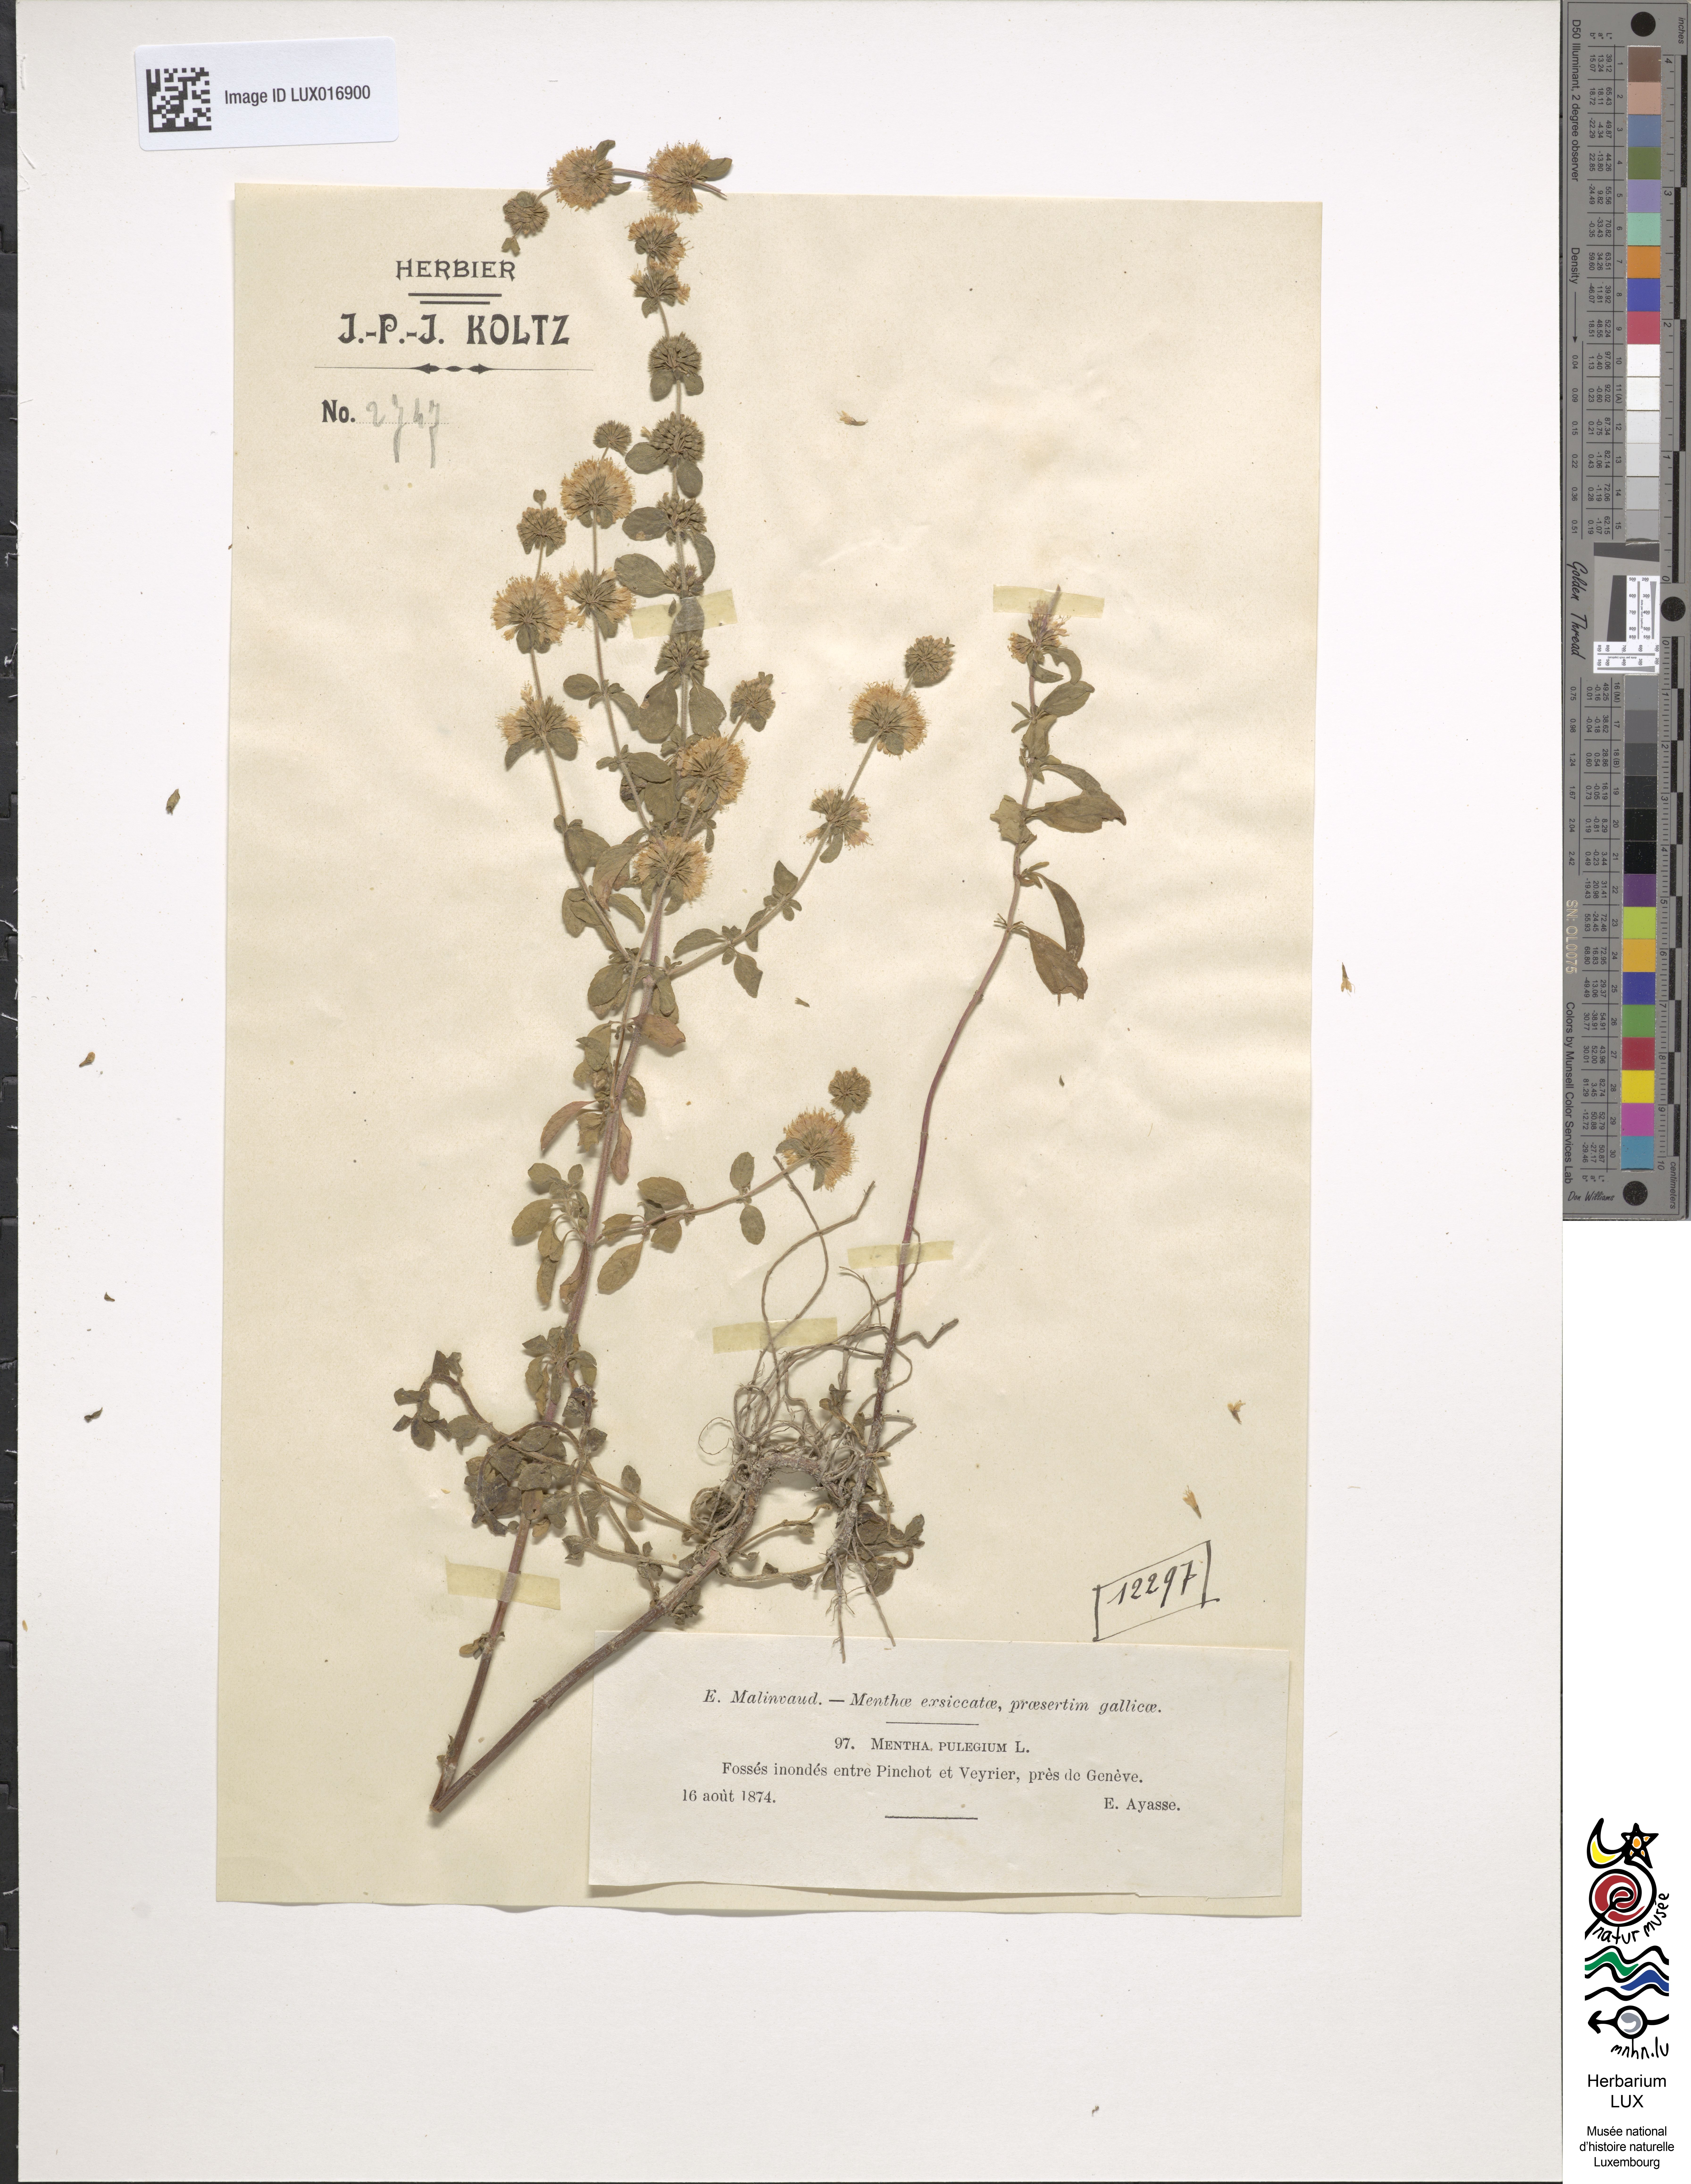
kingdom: Plantae
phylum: Tracheophyta
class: Magnoliopsida
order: Lamiales
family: Lamiaceae
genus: Mentha
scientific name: Mentha pulegium
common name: Pennyroyal
